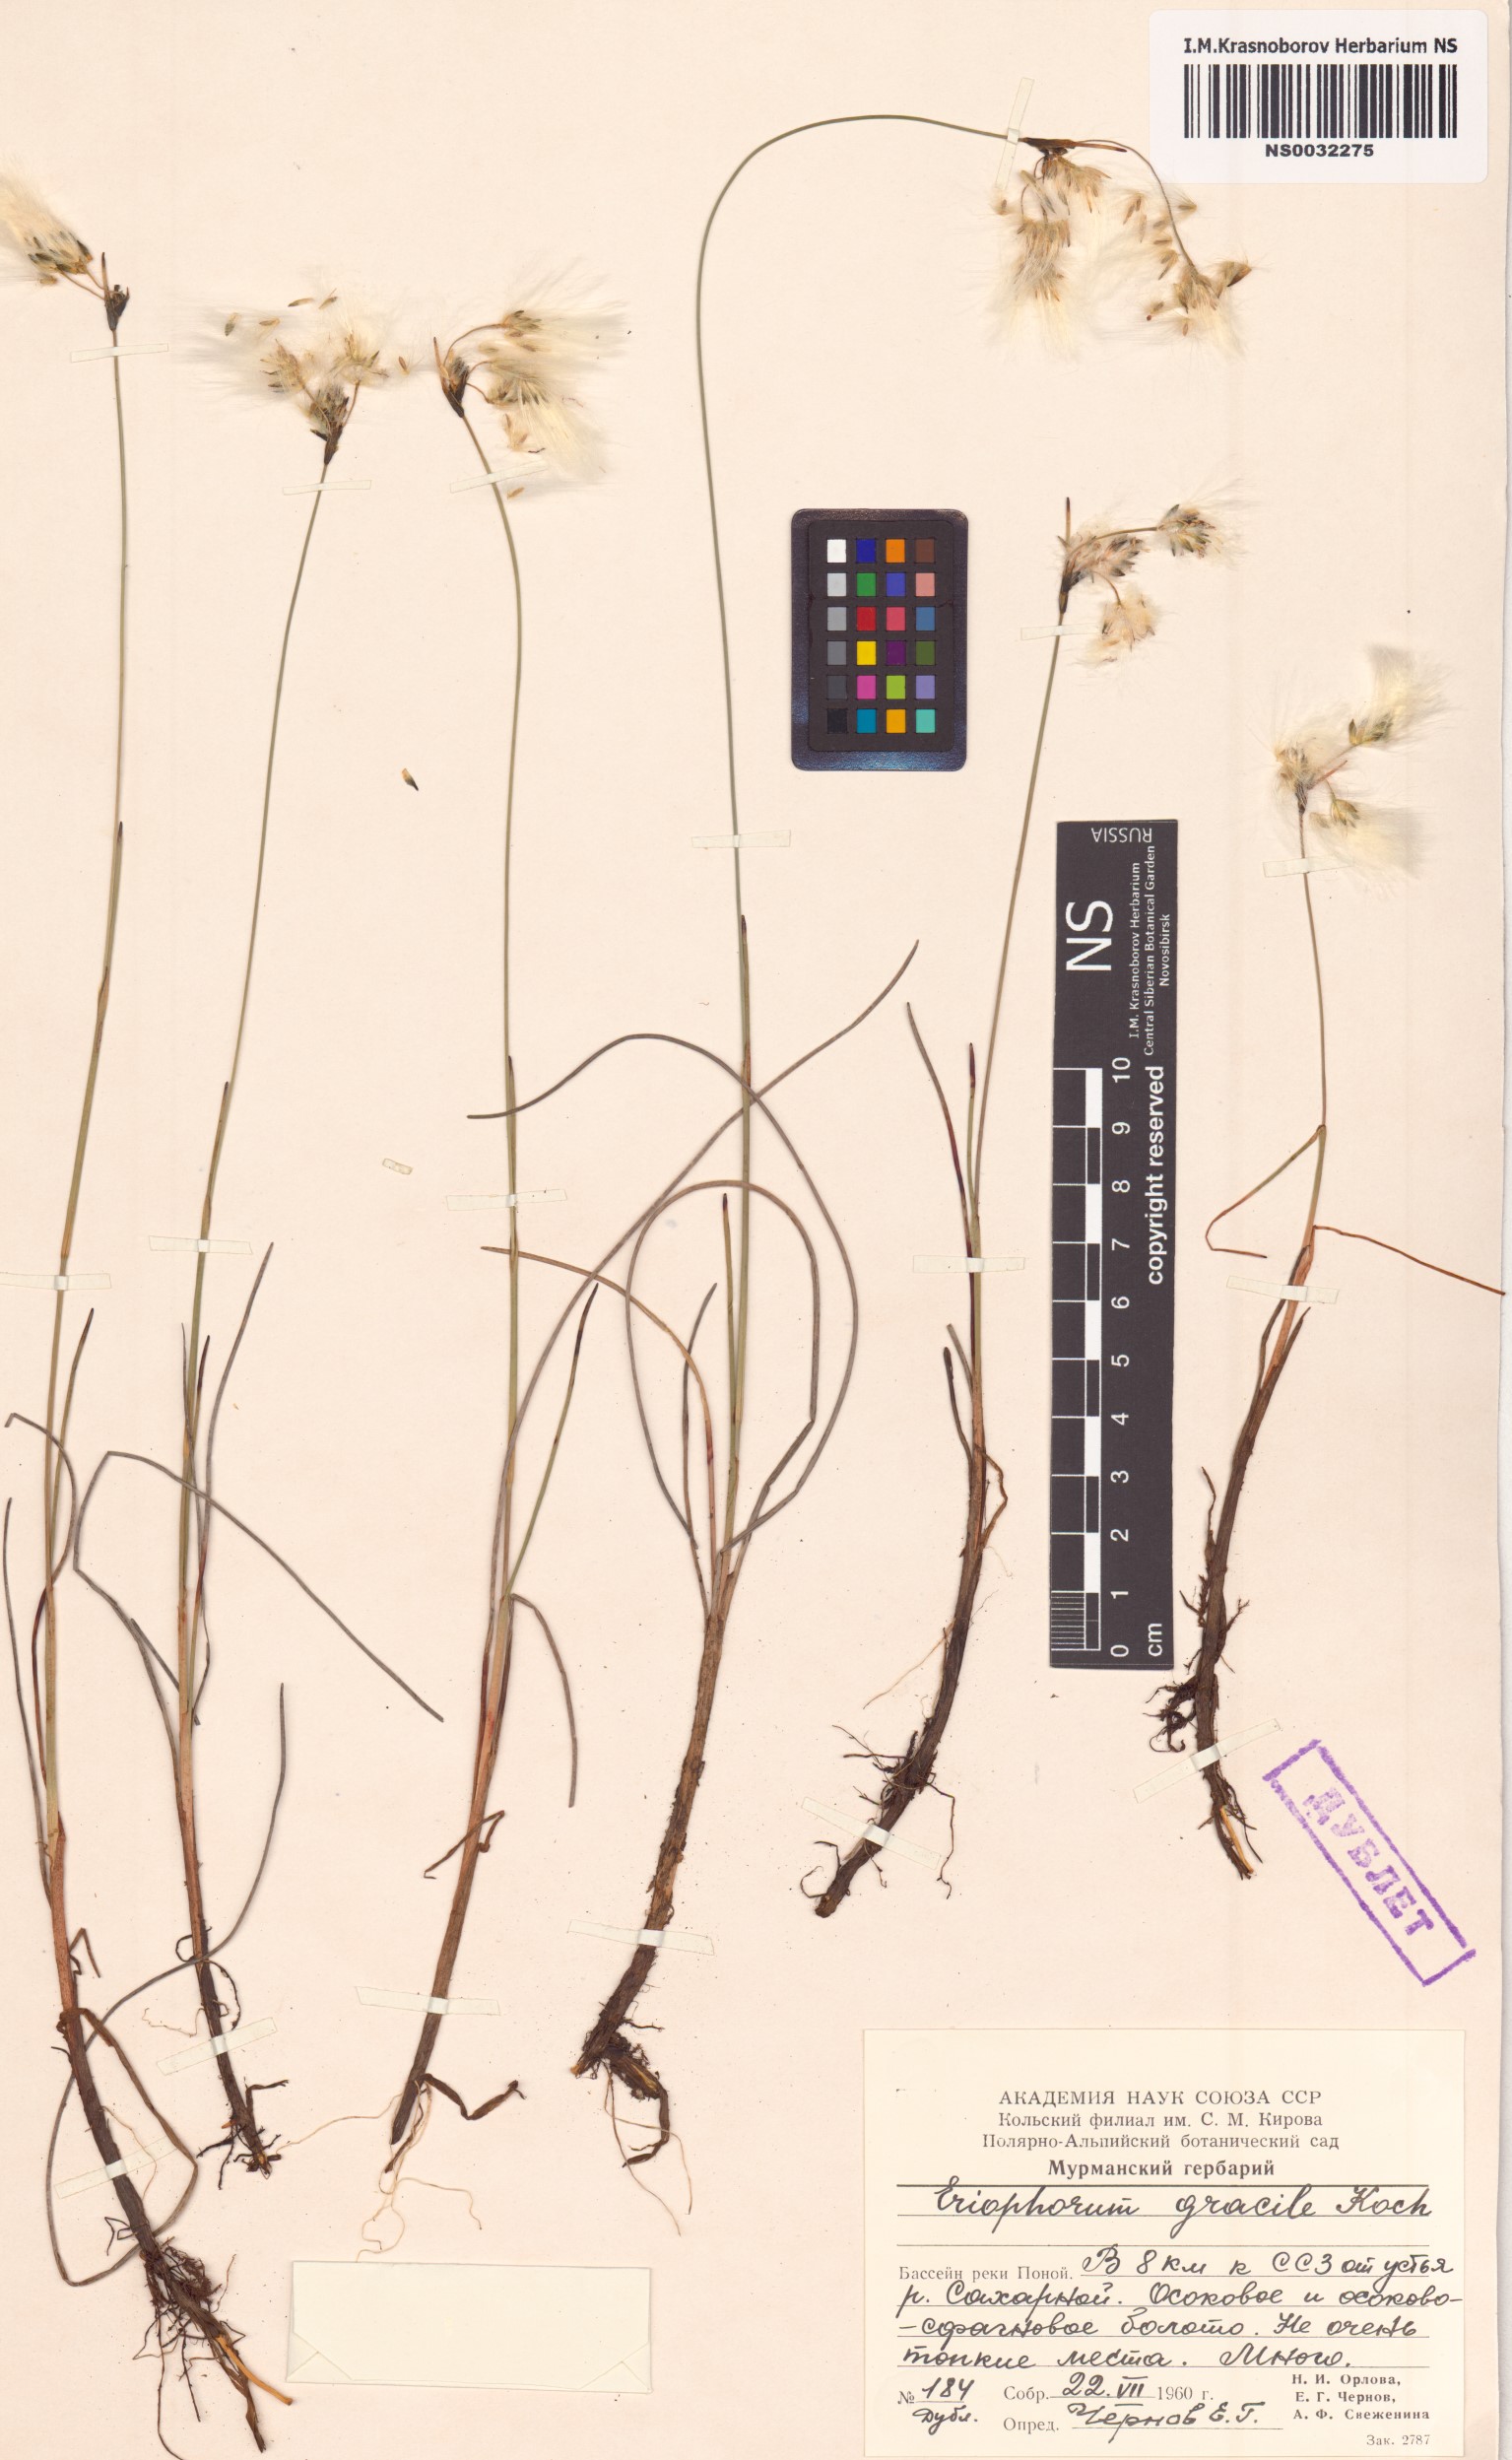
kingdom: Plantae
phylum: Tracheophyta
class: Liliopsida
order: Poales
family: Cyperaceae
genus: Eriophorum
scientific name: Eriophorum gracile
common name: Slender cottongrass
